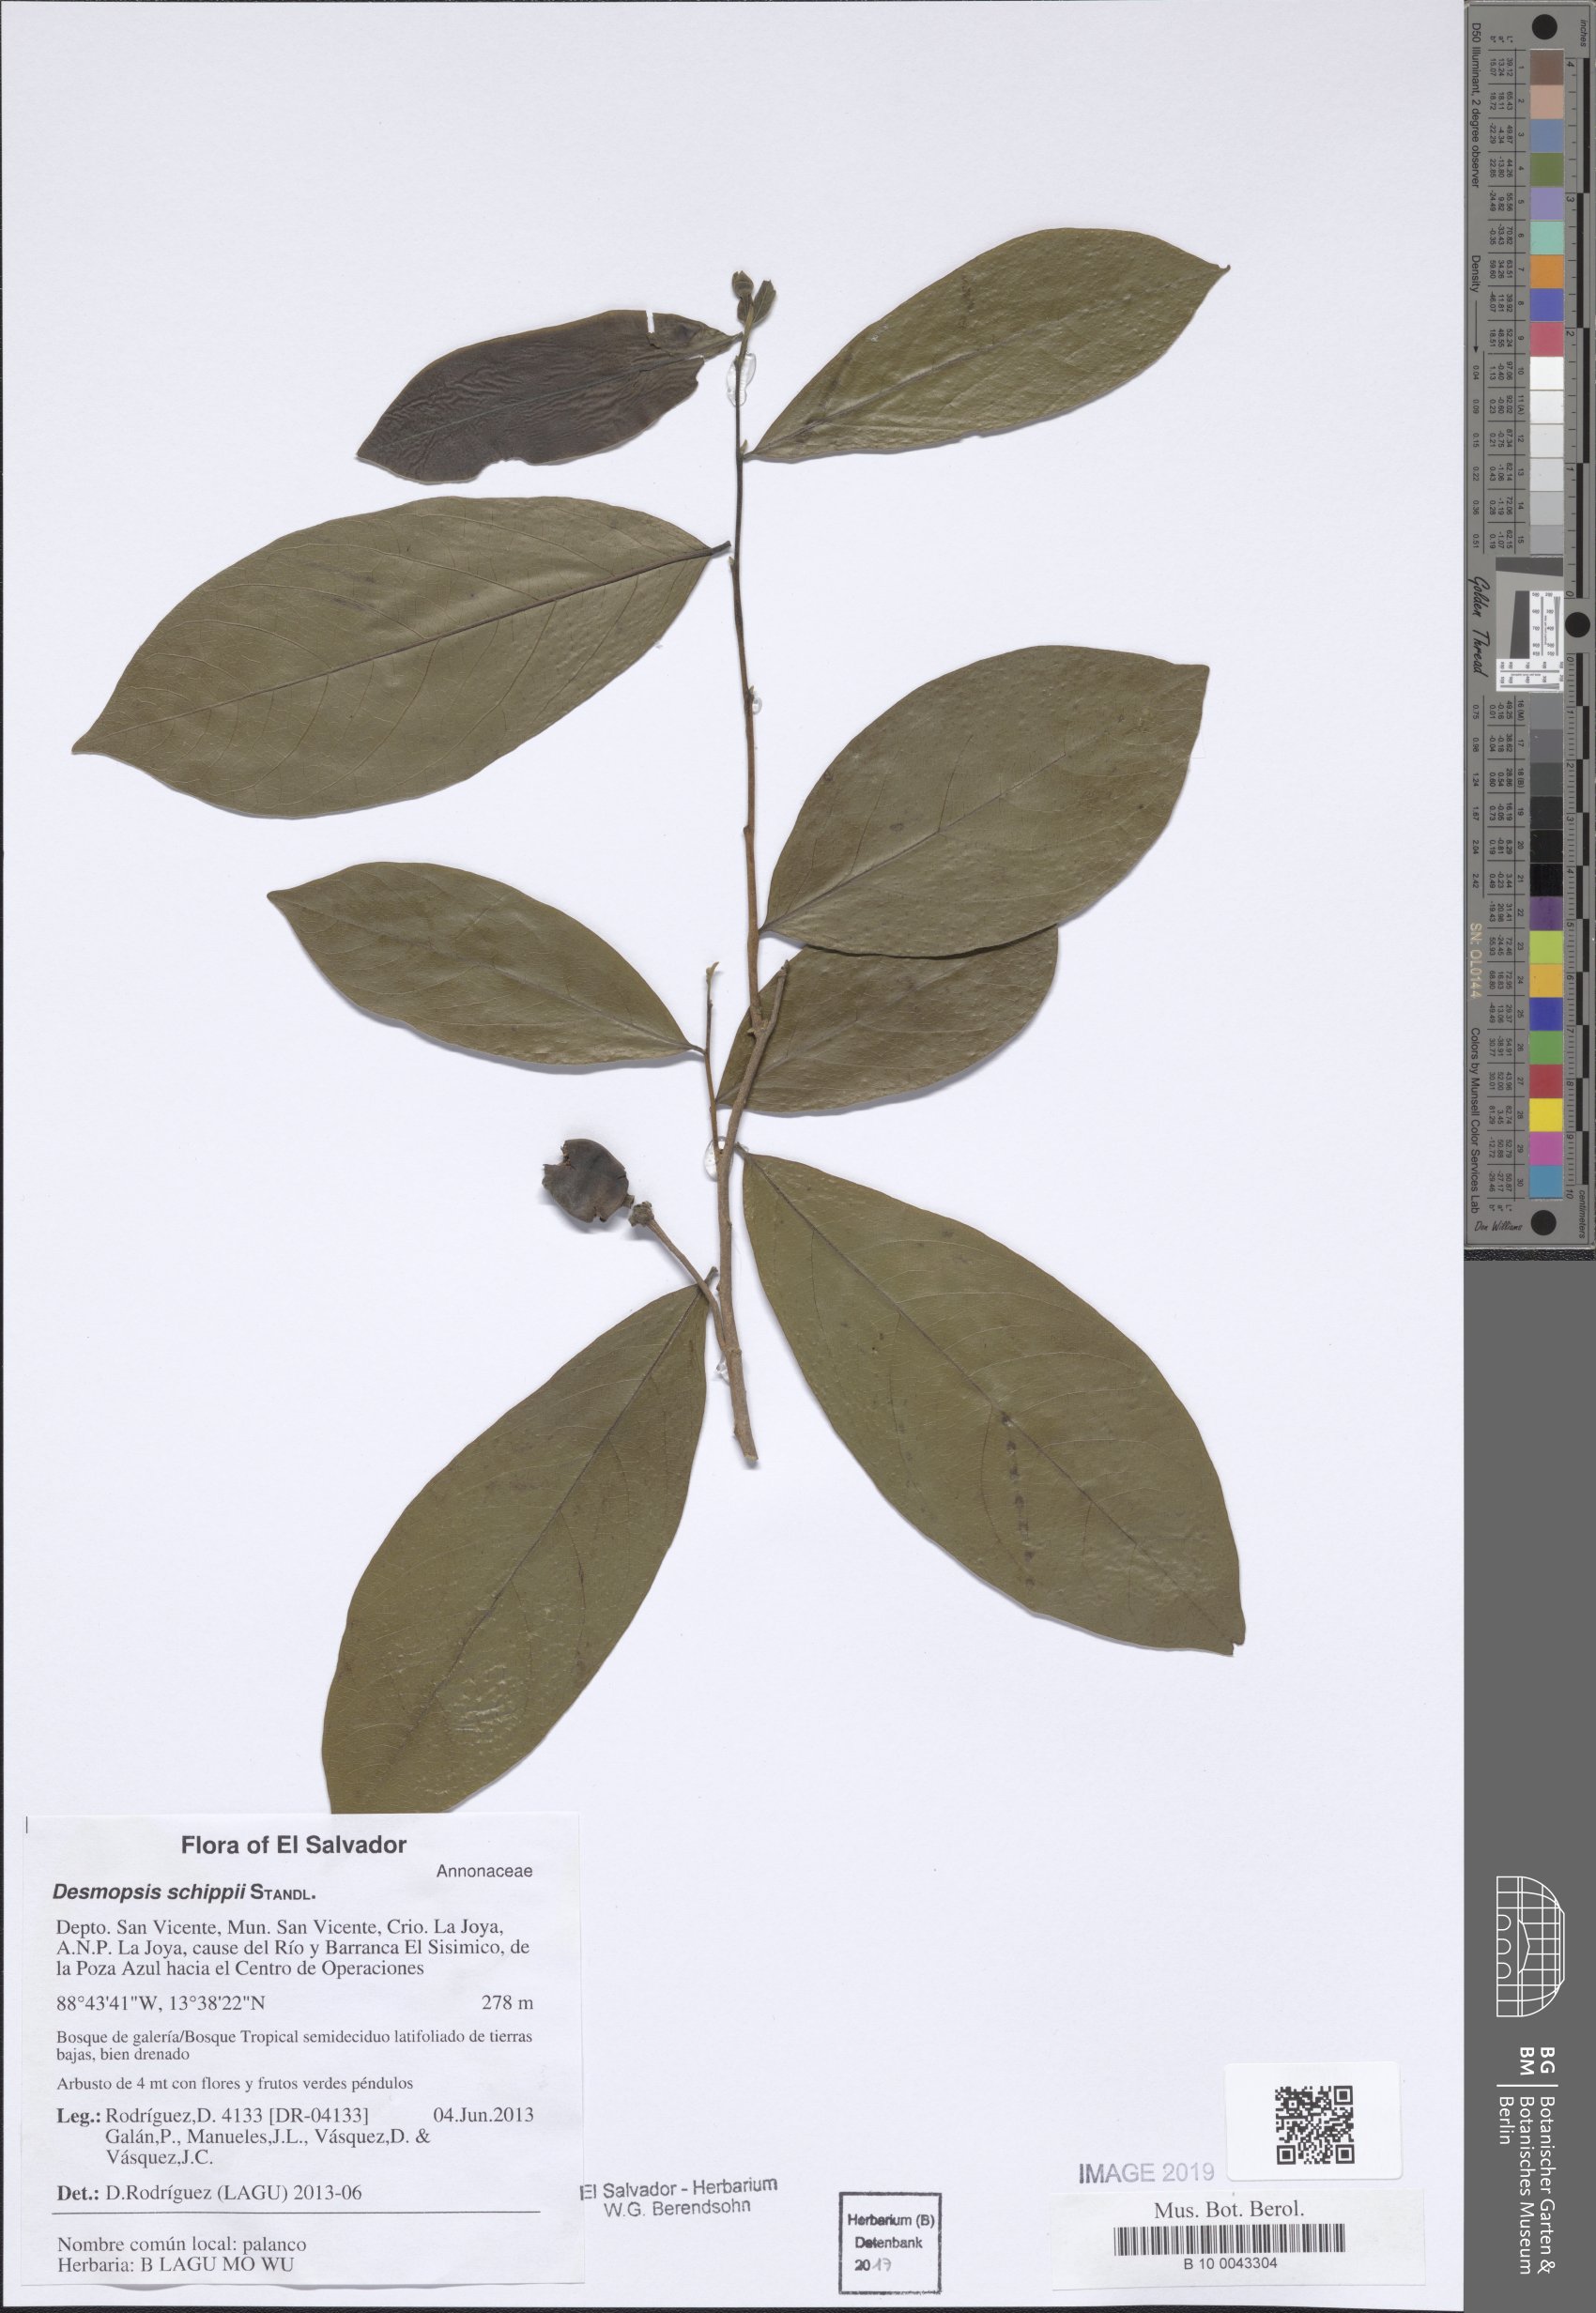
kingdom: Plantae
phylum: Tracheophyta
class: Magnoliopsida
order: Magnoliales
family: Annonaceae
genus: Desmopsis
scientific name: Desmopsis schippii
